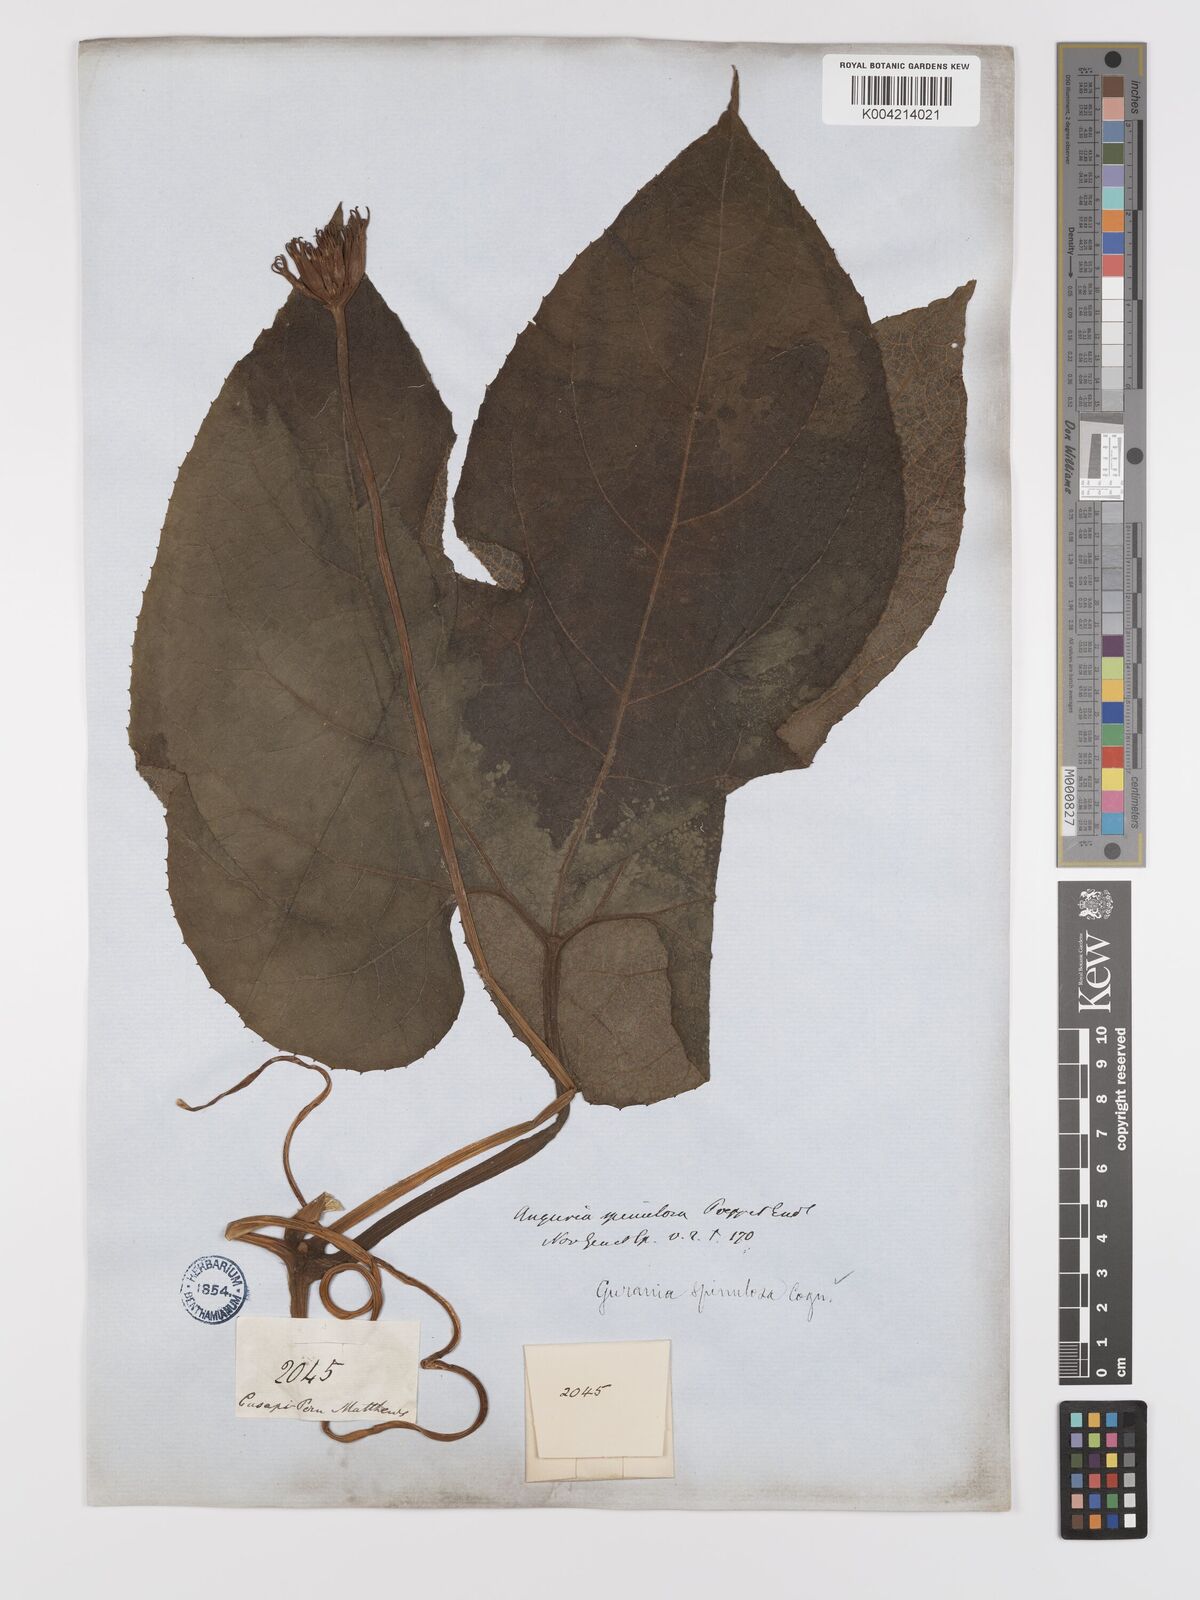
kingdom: Plantae
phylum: Tracheophyta
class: Magnoliopsida
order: Cucurbitales
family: Cucurbitaceae
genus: Gurania
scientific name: Gurania lobata
